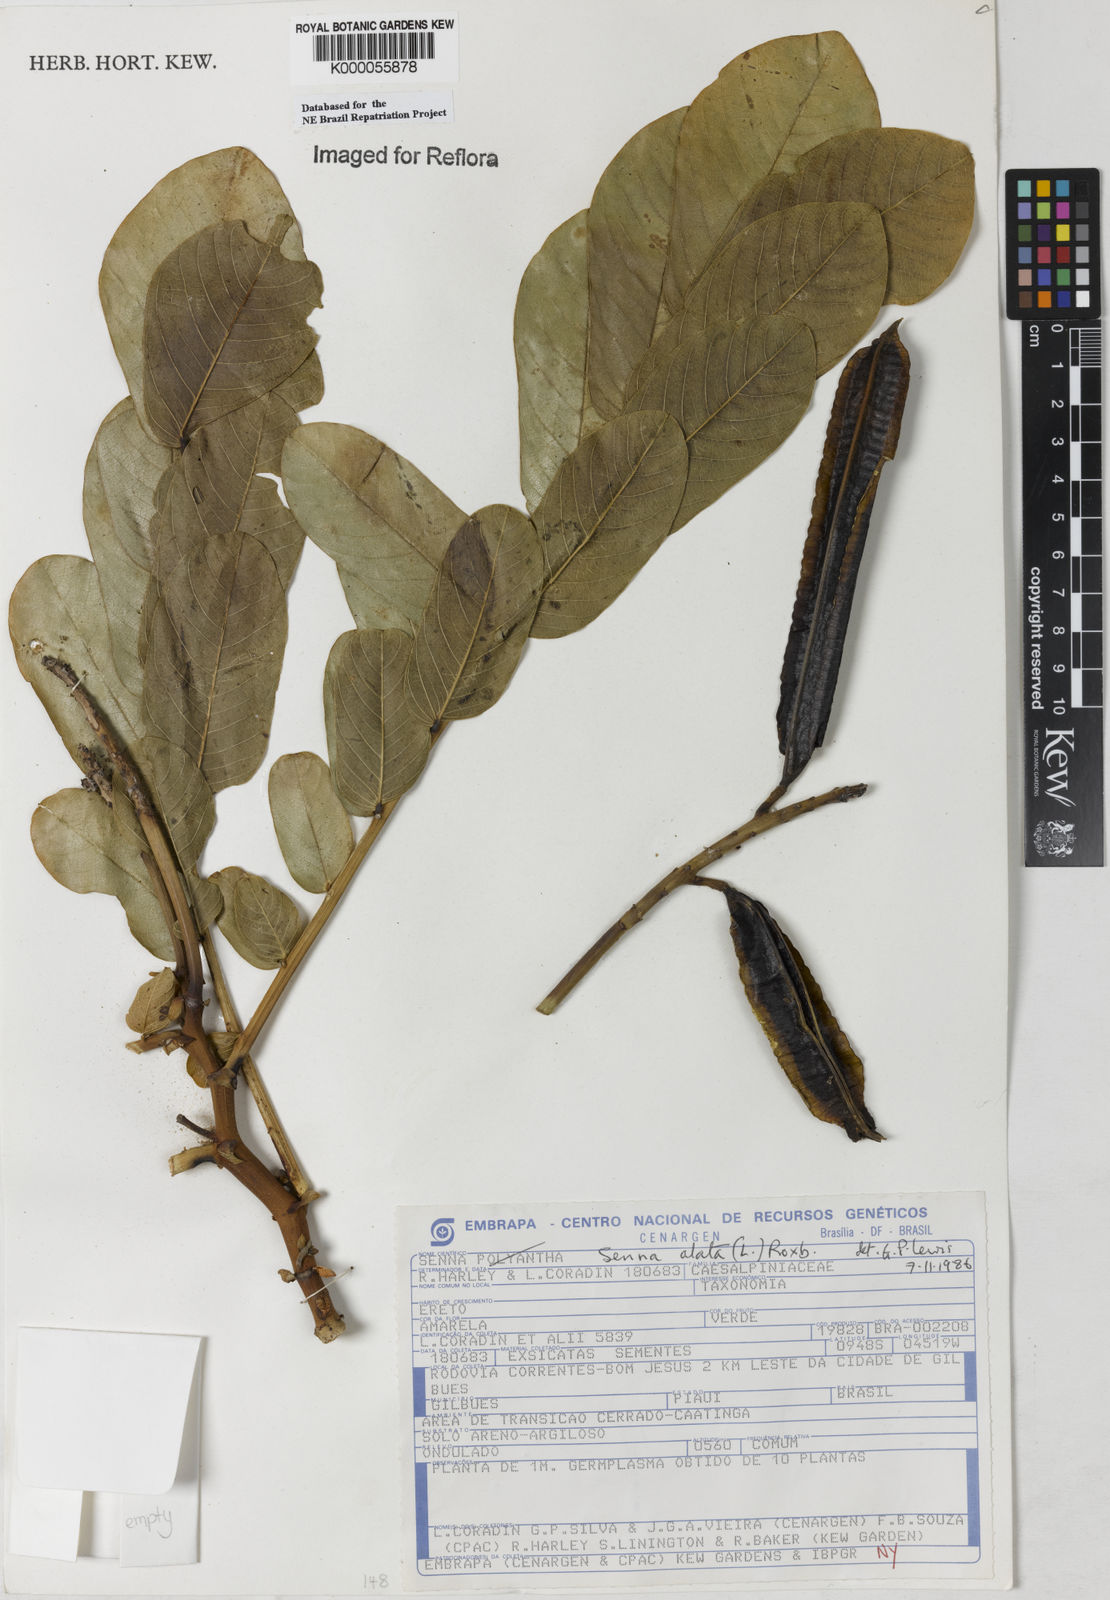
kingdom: Plantae
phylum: Tracheophyta
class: Magnoliopsida
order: Fabales
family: Fabaceae
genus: Senna
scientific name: Senna alata
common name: Emperor's candlesticks
